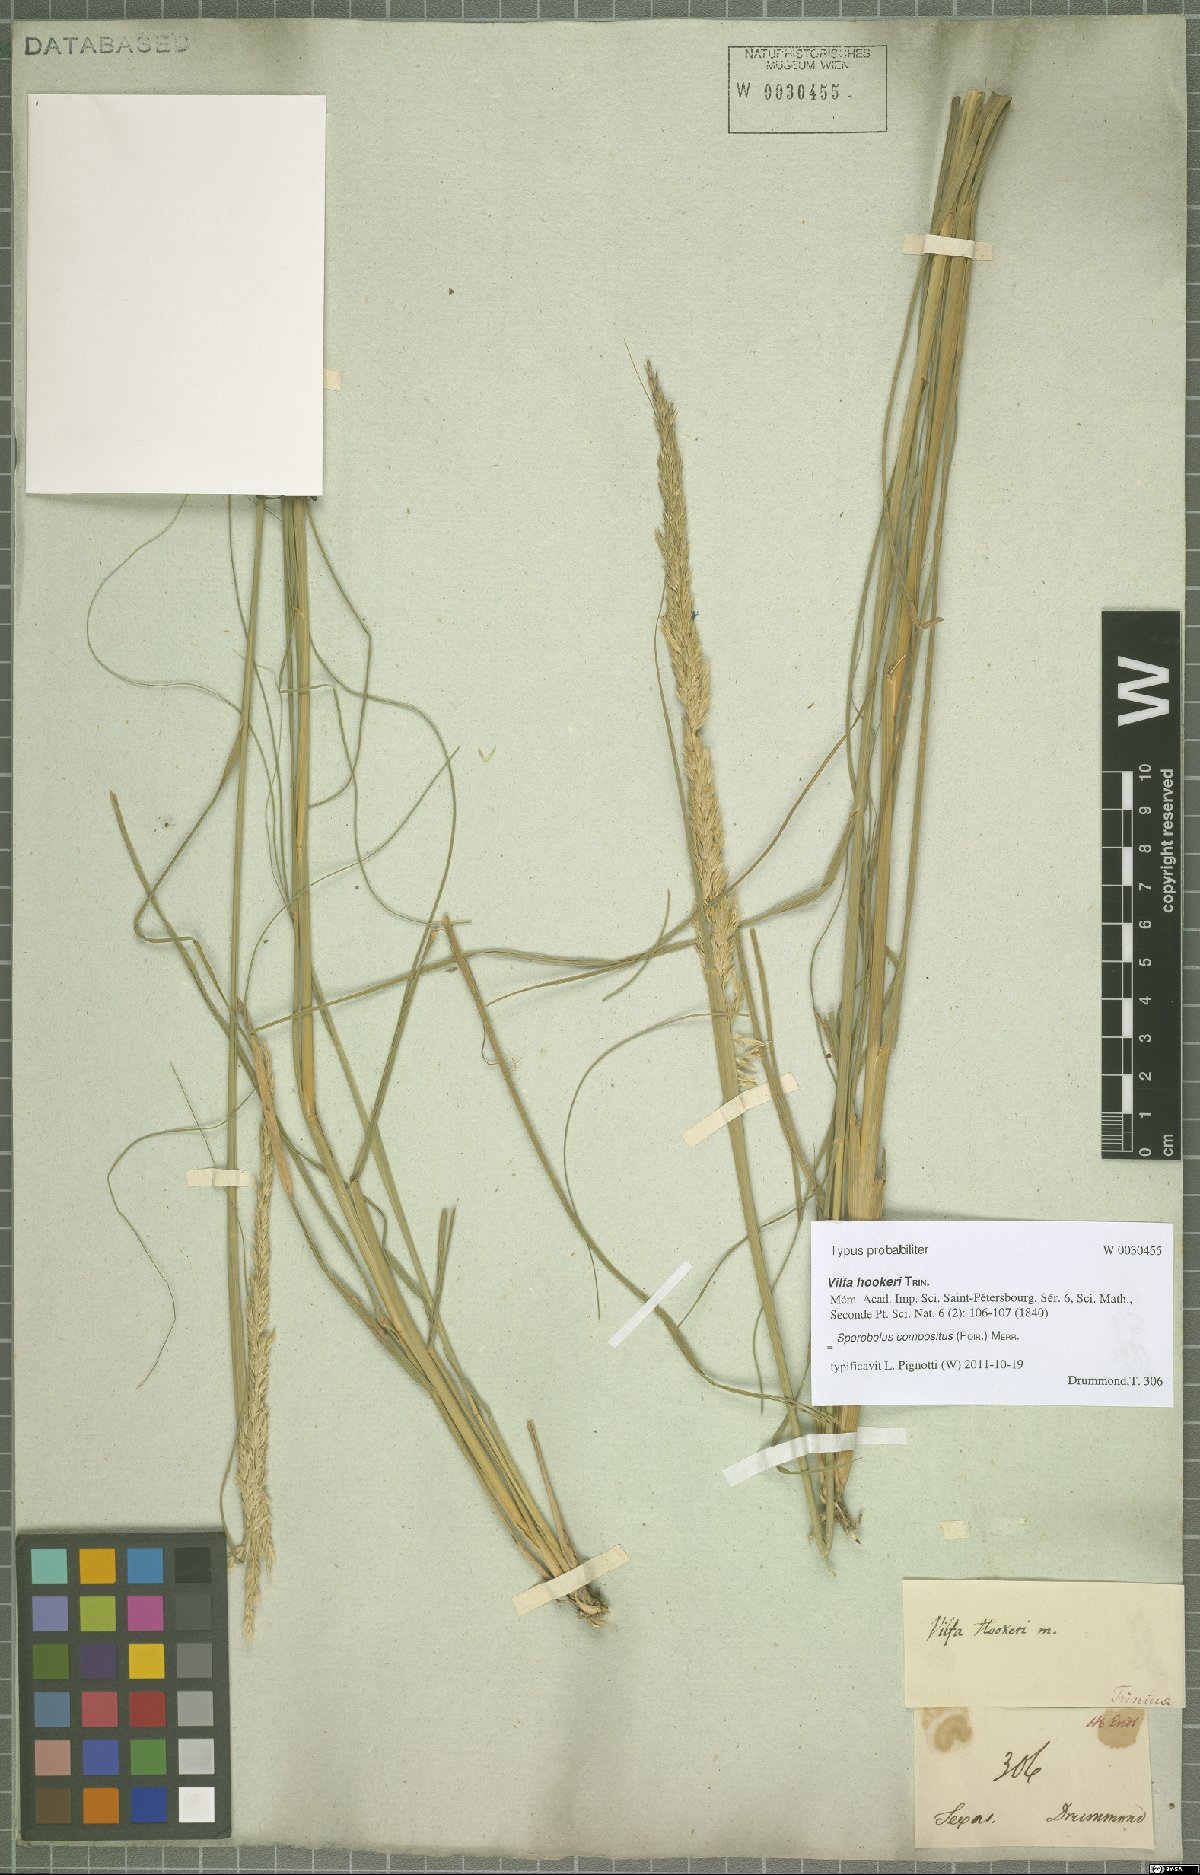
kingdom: Plantae
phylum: Tracheophyta
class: Liliopsida
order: Poales
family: Poaceae
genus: Sporobolus
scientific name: Sporobolus compositus
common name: Rough dropseed
